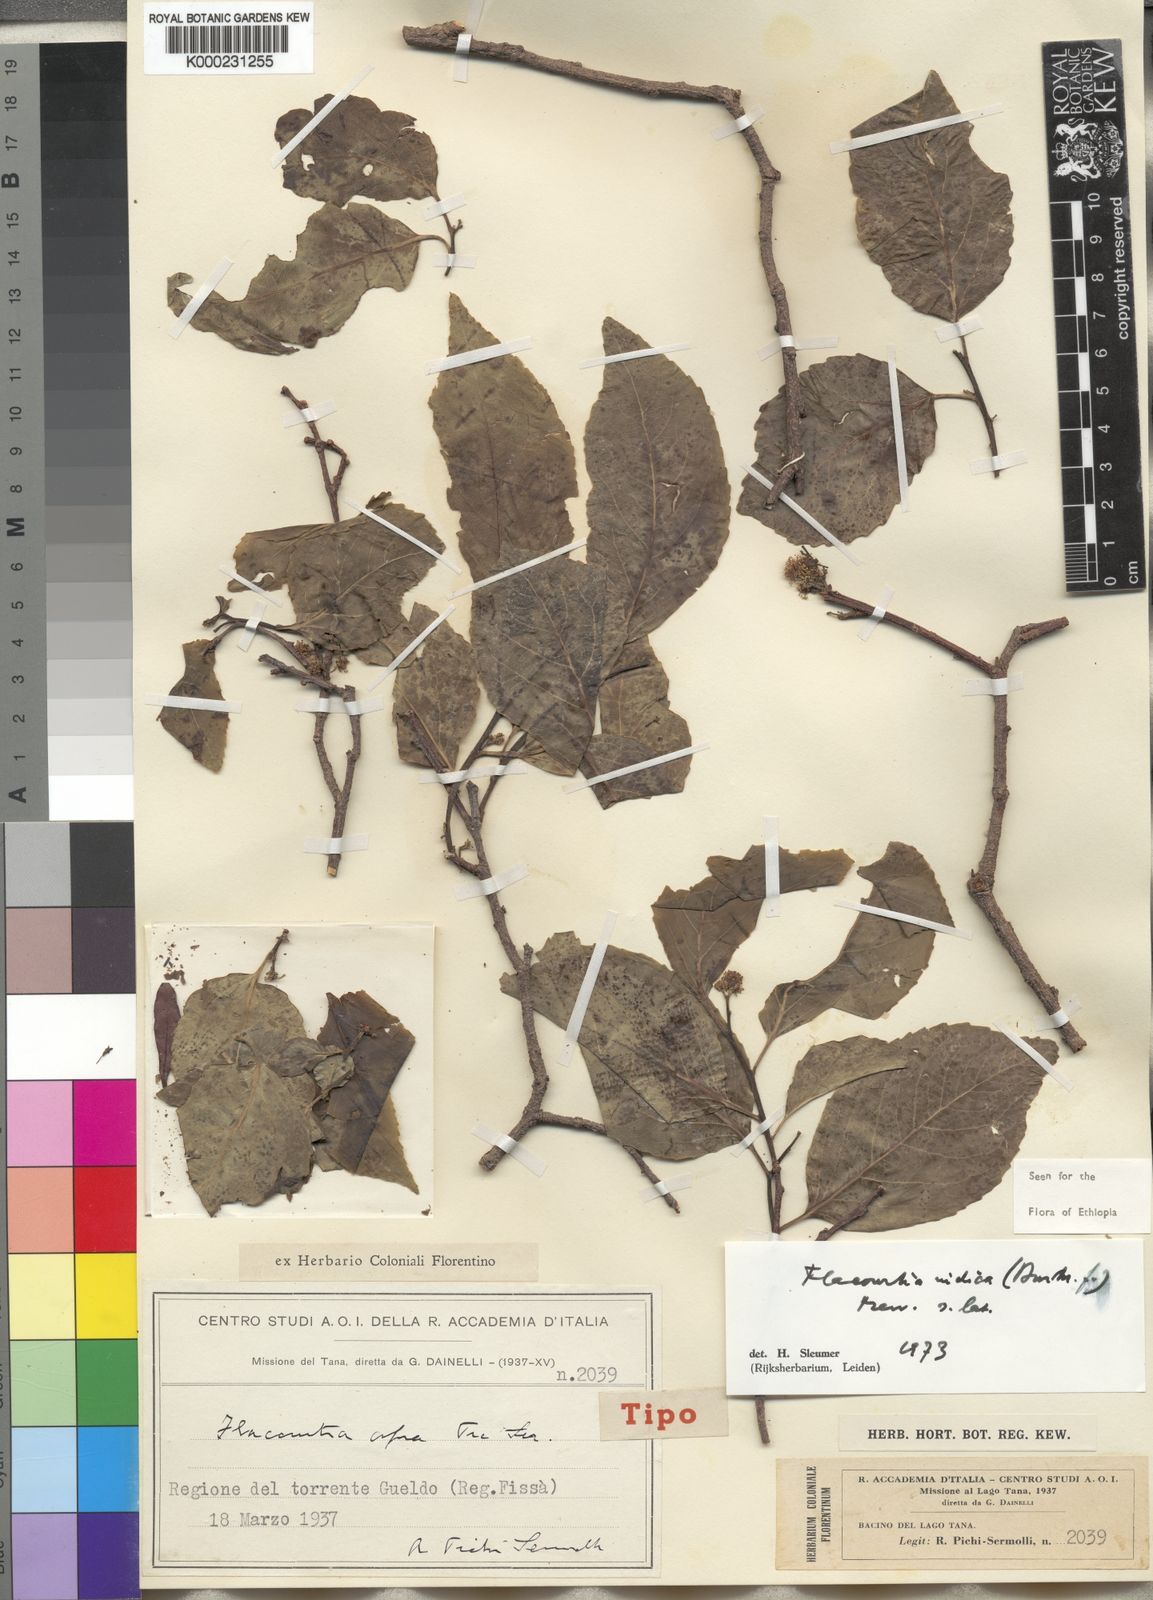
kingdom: Plantae
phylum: Tracheophyta
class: Magnoliopsida
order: Malpighiales
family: Salicaceae
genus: Flacourtia
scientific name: Flacourtia indica
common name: Governor's plum
